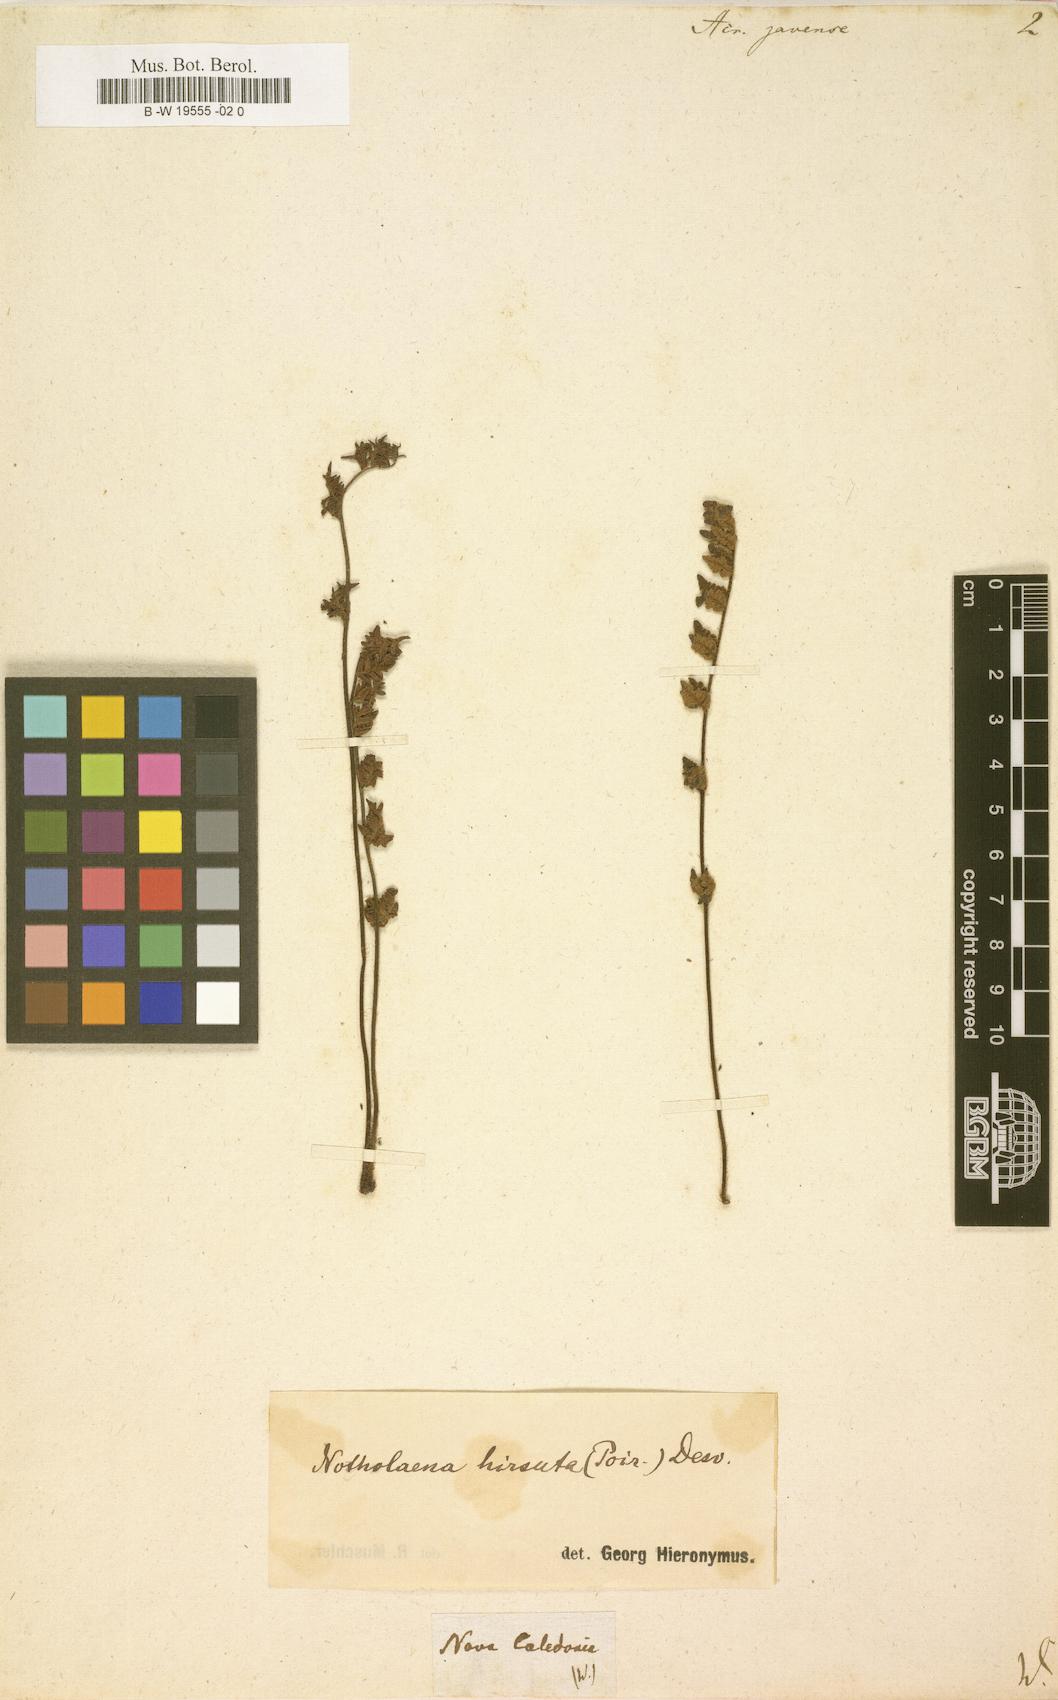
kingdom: Plantae
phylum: Tracheophyta
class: Polypodiopsida
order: Polypodiales
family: Pteridaceae
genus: Cheilanthes
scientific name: Cheilanthes nudiuscula
